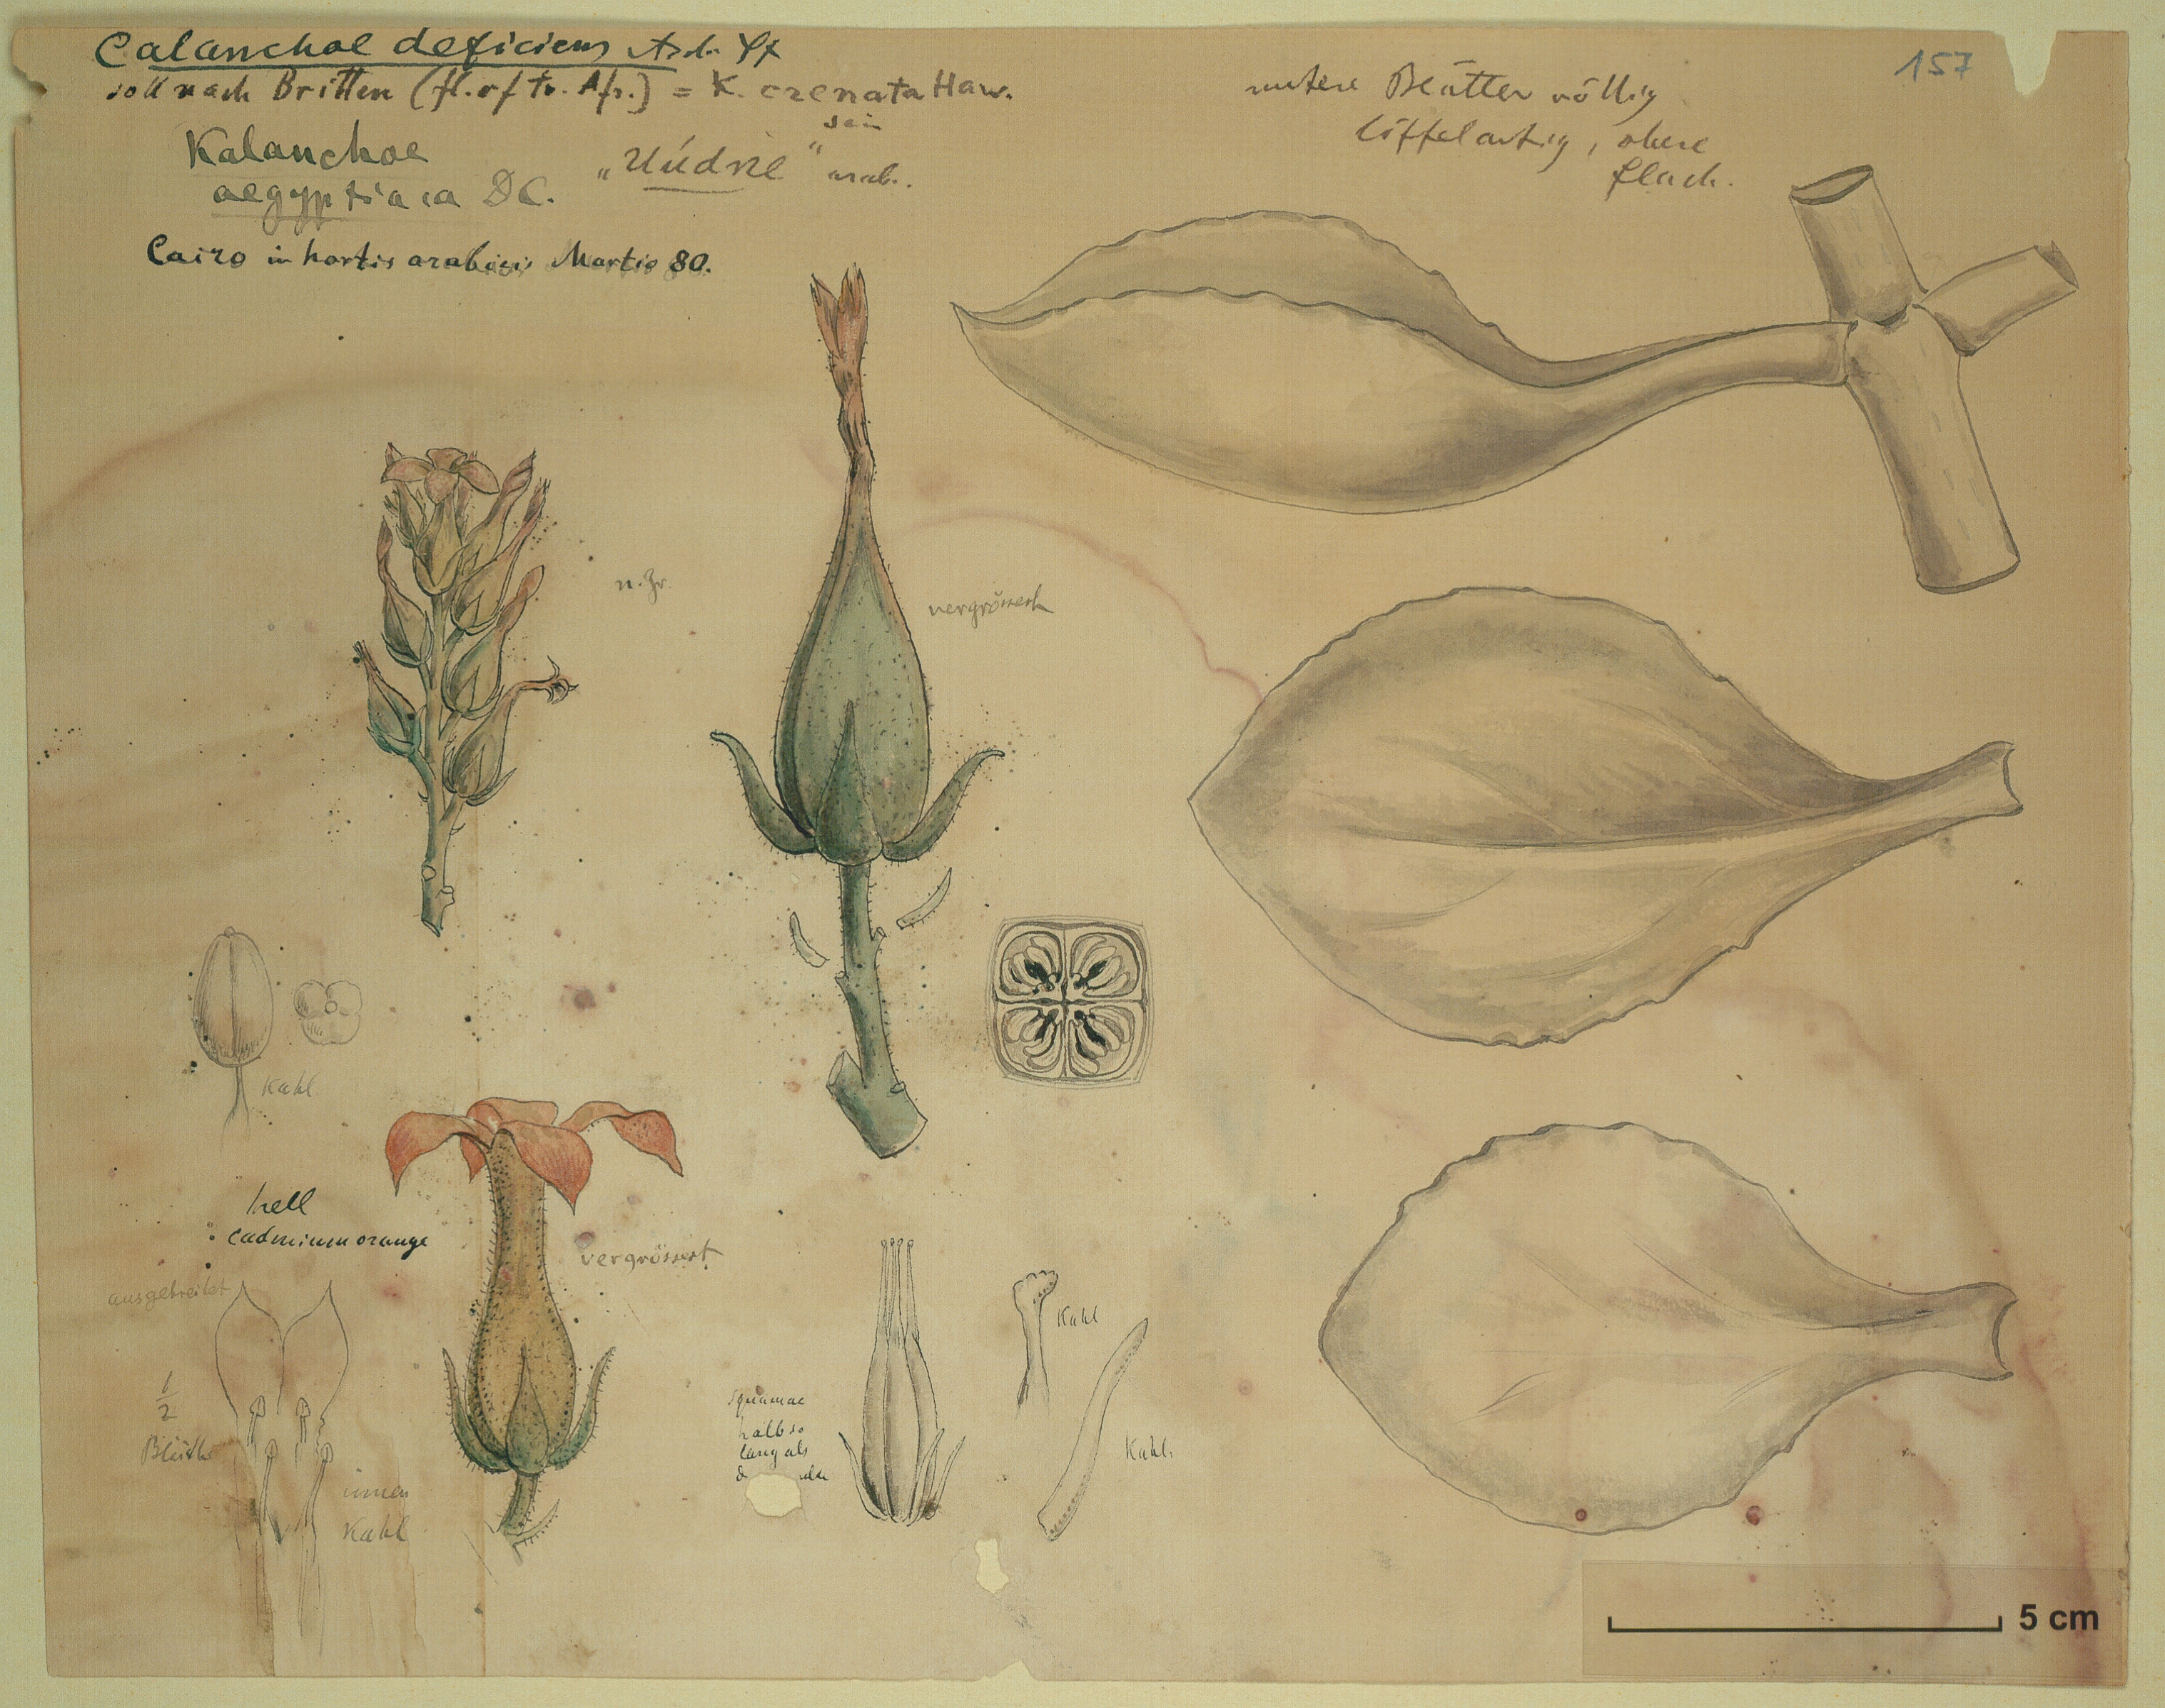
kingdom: Plantae
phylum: Tracheophyta
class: Magnoliopsida
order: Saxifragales
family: Crassulaceae
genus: Kalanchoe
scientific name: Kalanchoe deficiens
